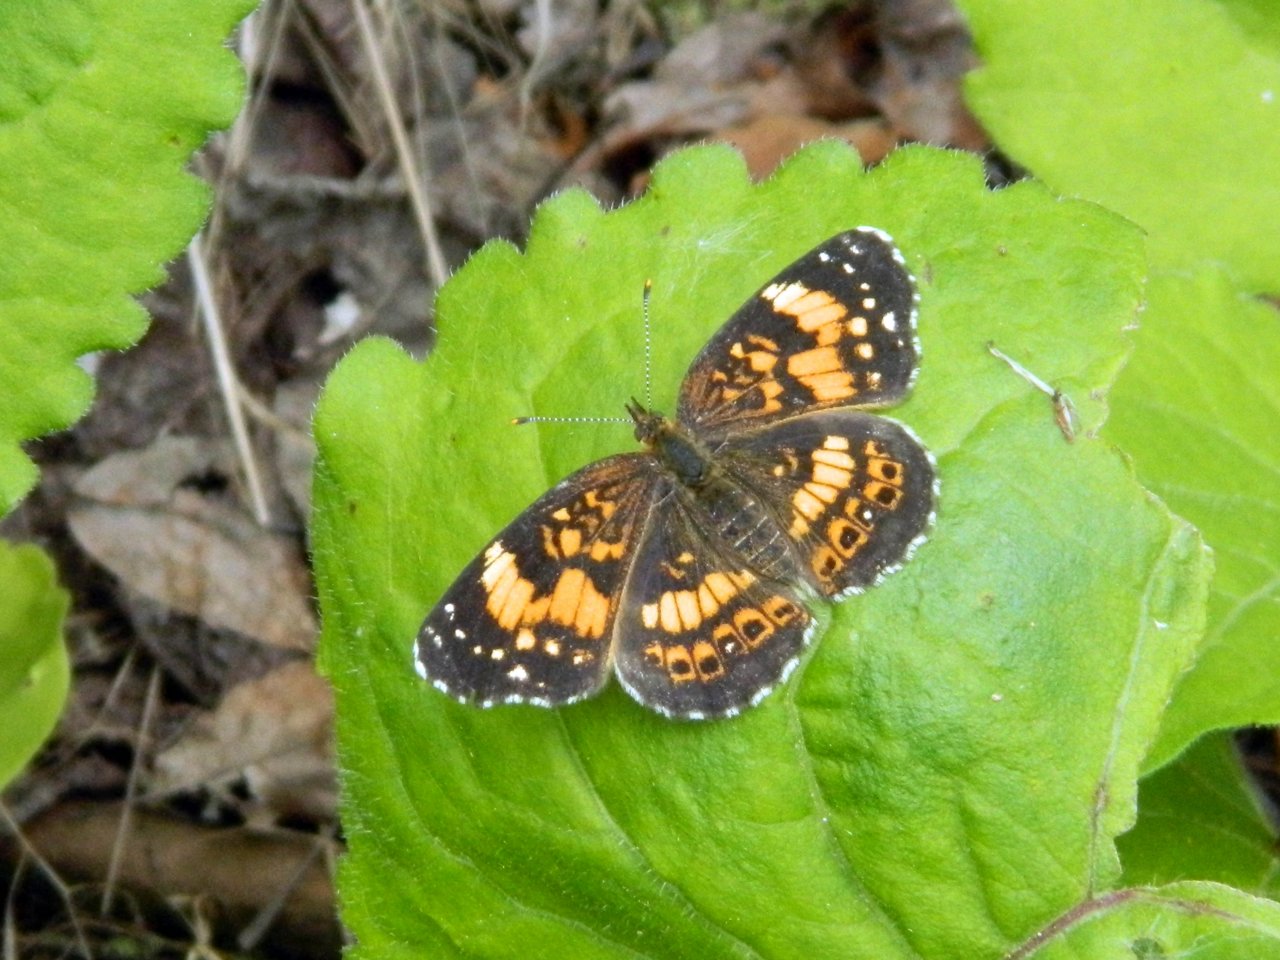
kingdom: Animalia
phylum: Arthropoda
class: Insecta
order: Lepidoptera
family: Nymphalidae
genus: Chlosyne
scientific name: Chlosyne nycteis
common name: Silvery Checkerspot
